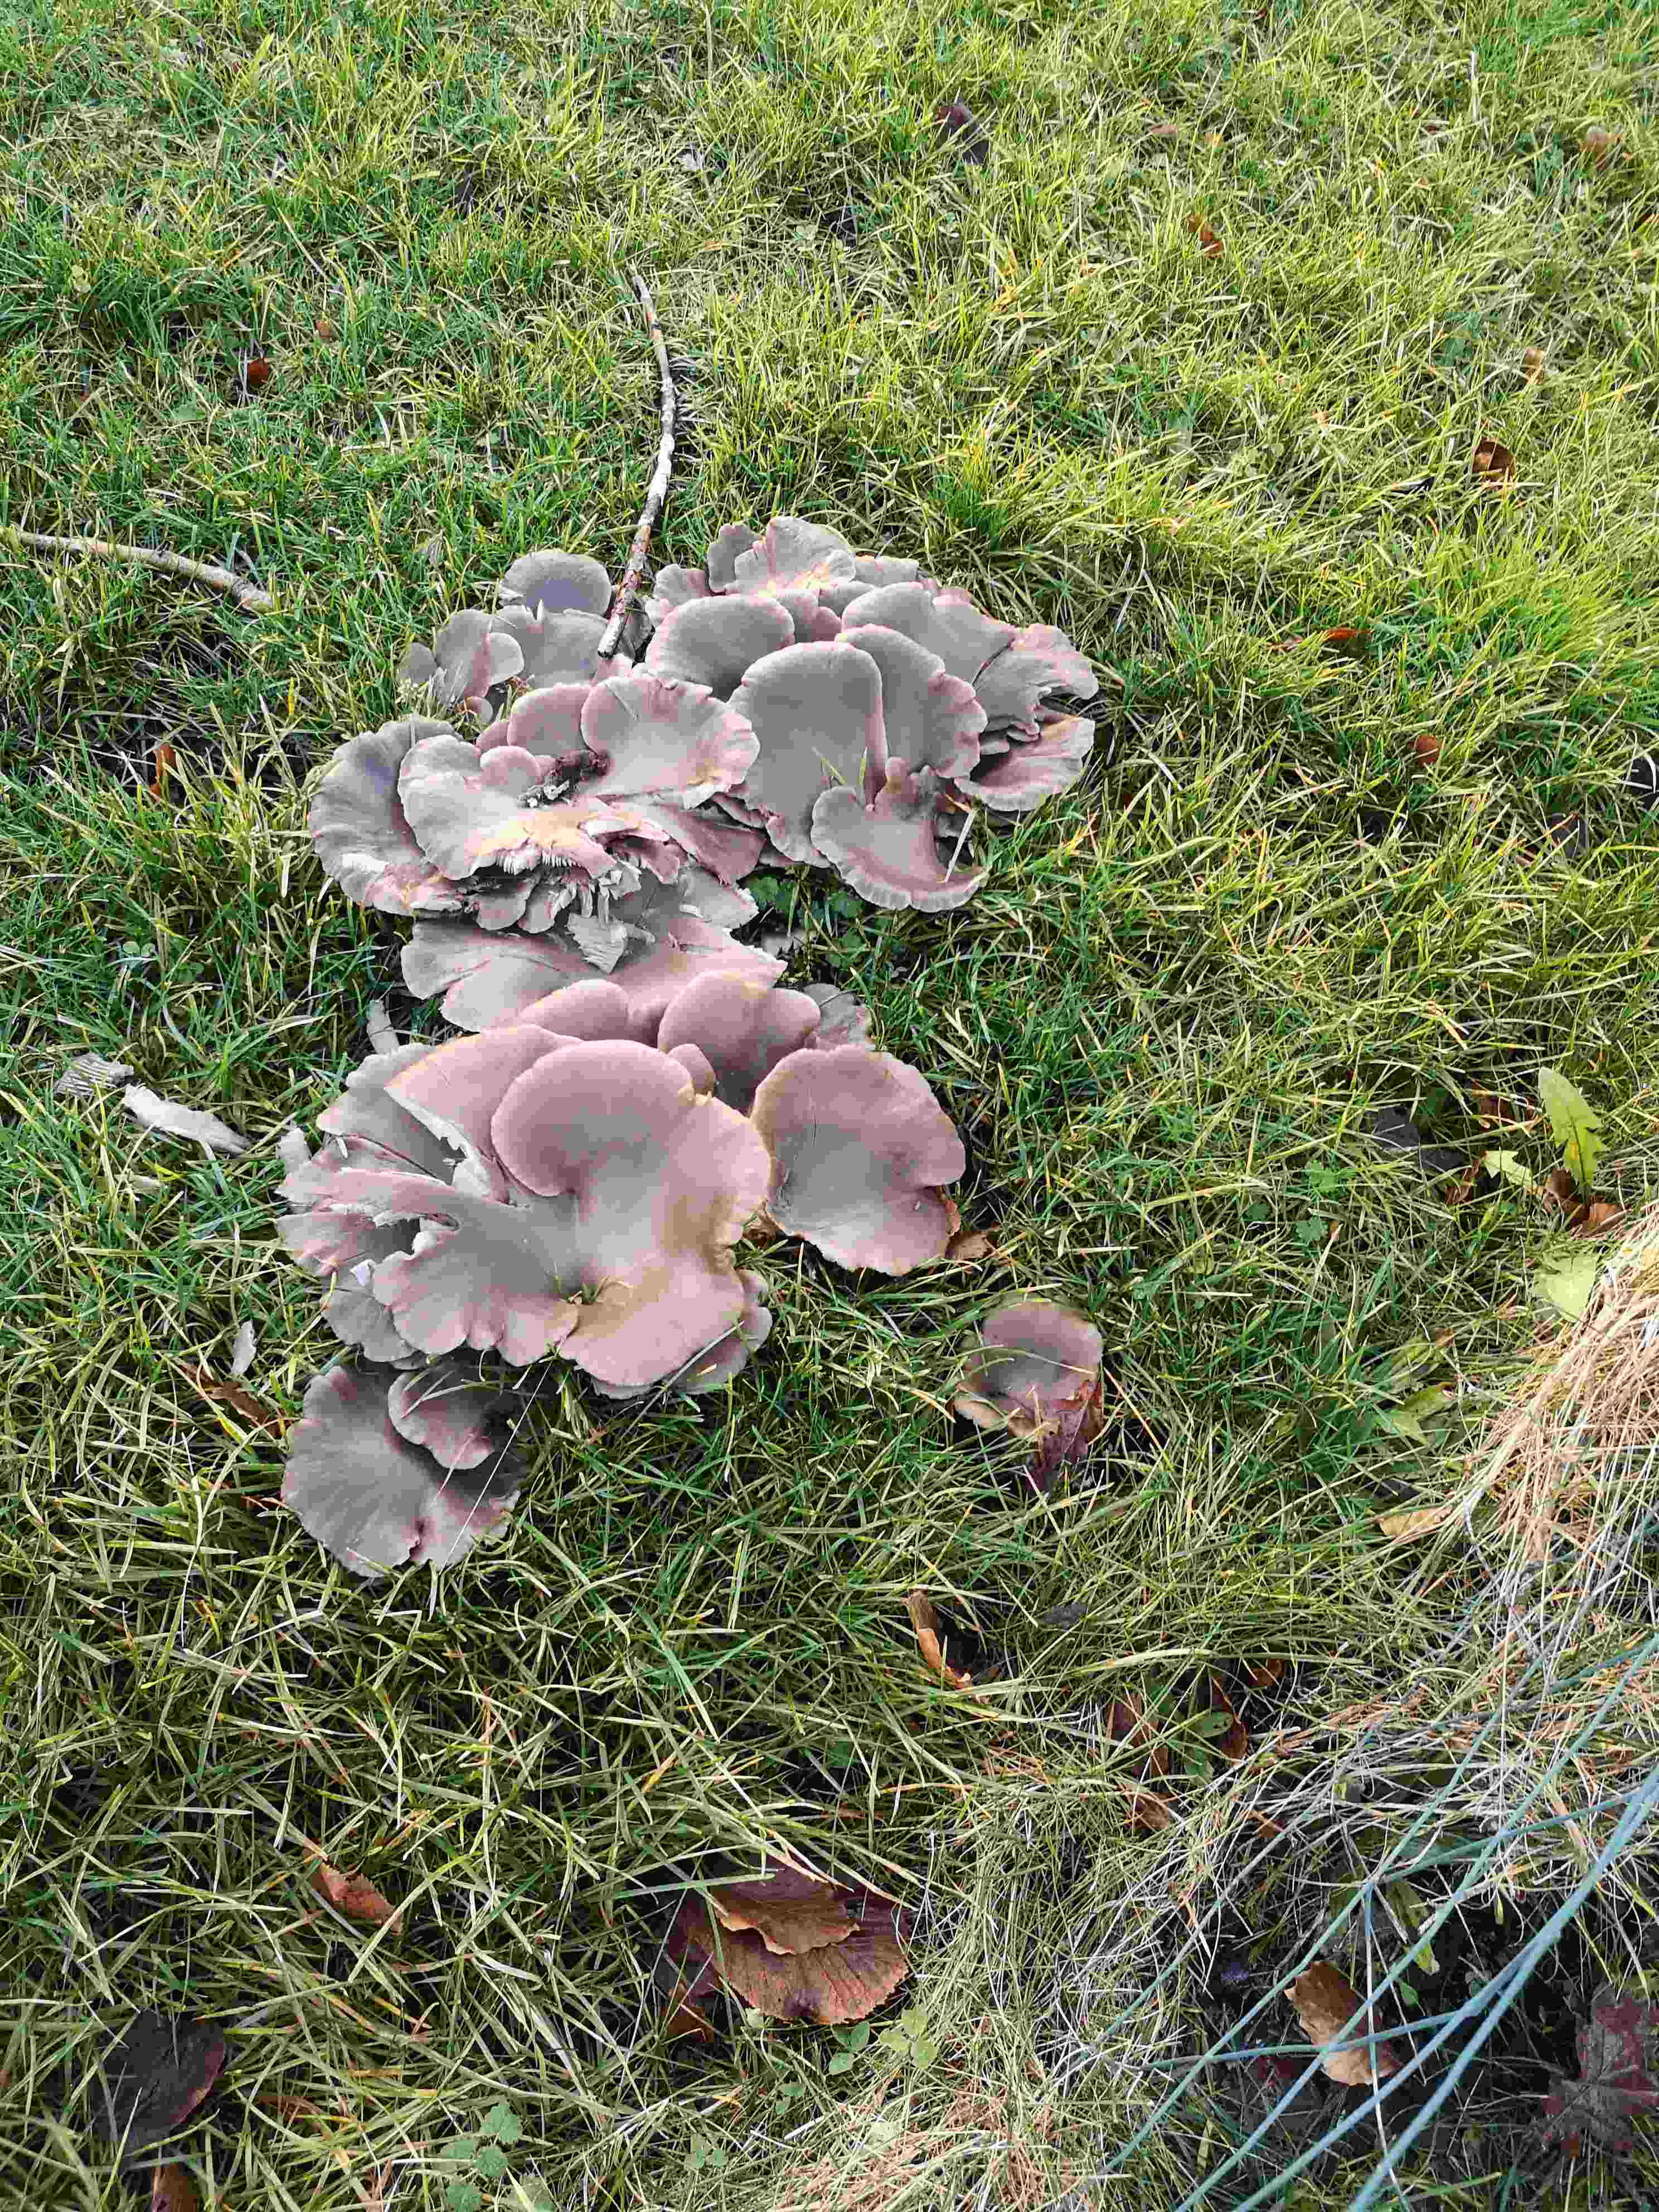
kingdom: Fungi
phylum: Basidiomycota
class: Agaricomycetes
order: Agaricales
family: Pleurotaceae
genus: Pleurotus
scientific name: Pleurotus ostreatus
